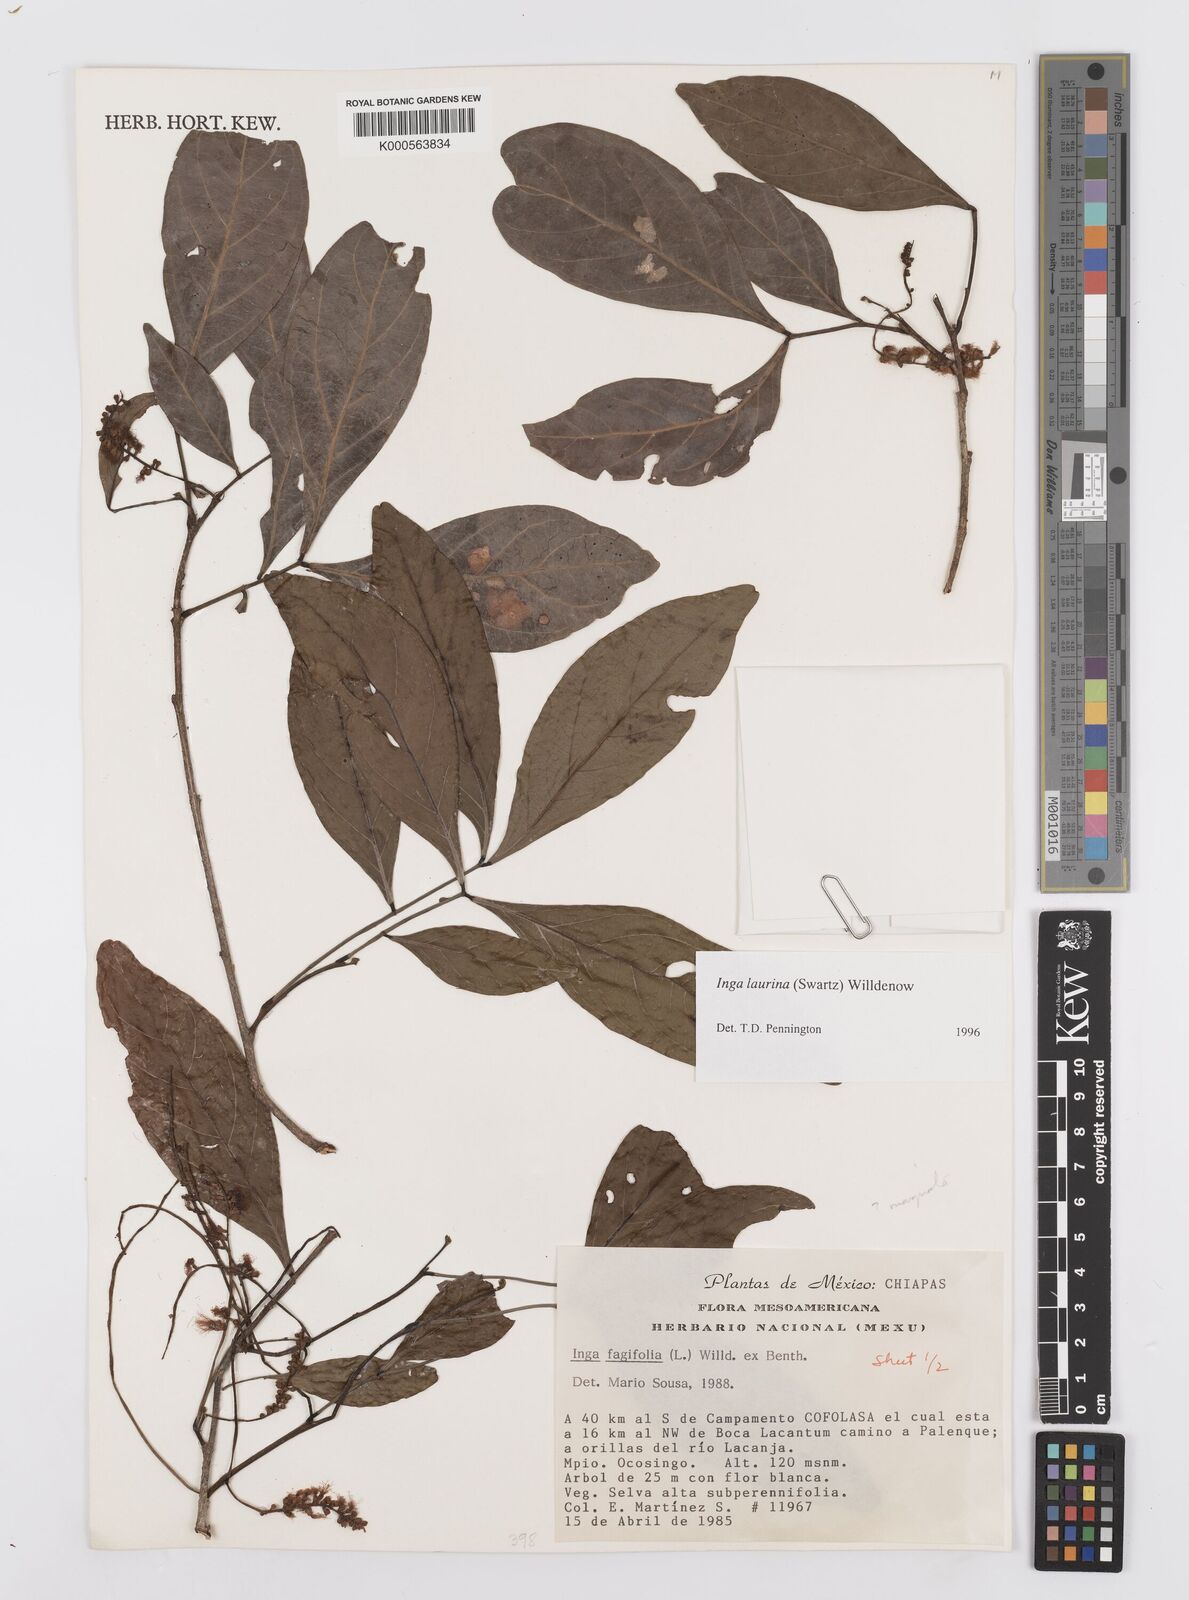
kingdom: Plantae
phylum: Tracheophyta
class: Magnoliopsida
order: Fabales
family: Fabaceae
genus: Inga
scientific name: Inga laurina
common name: Red wood
